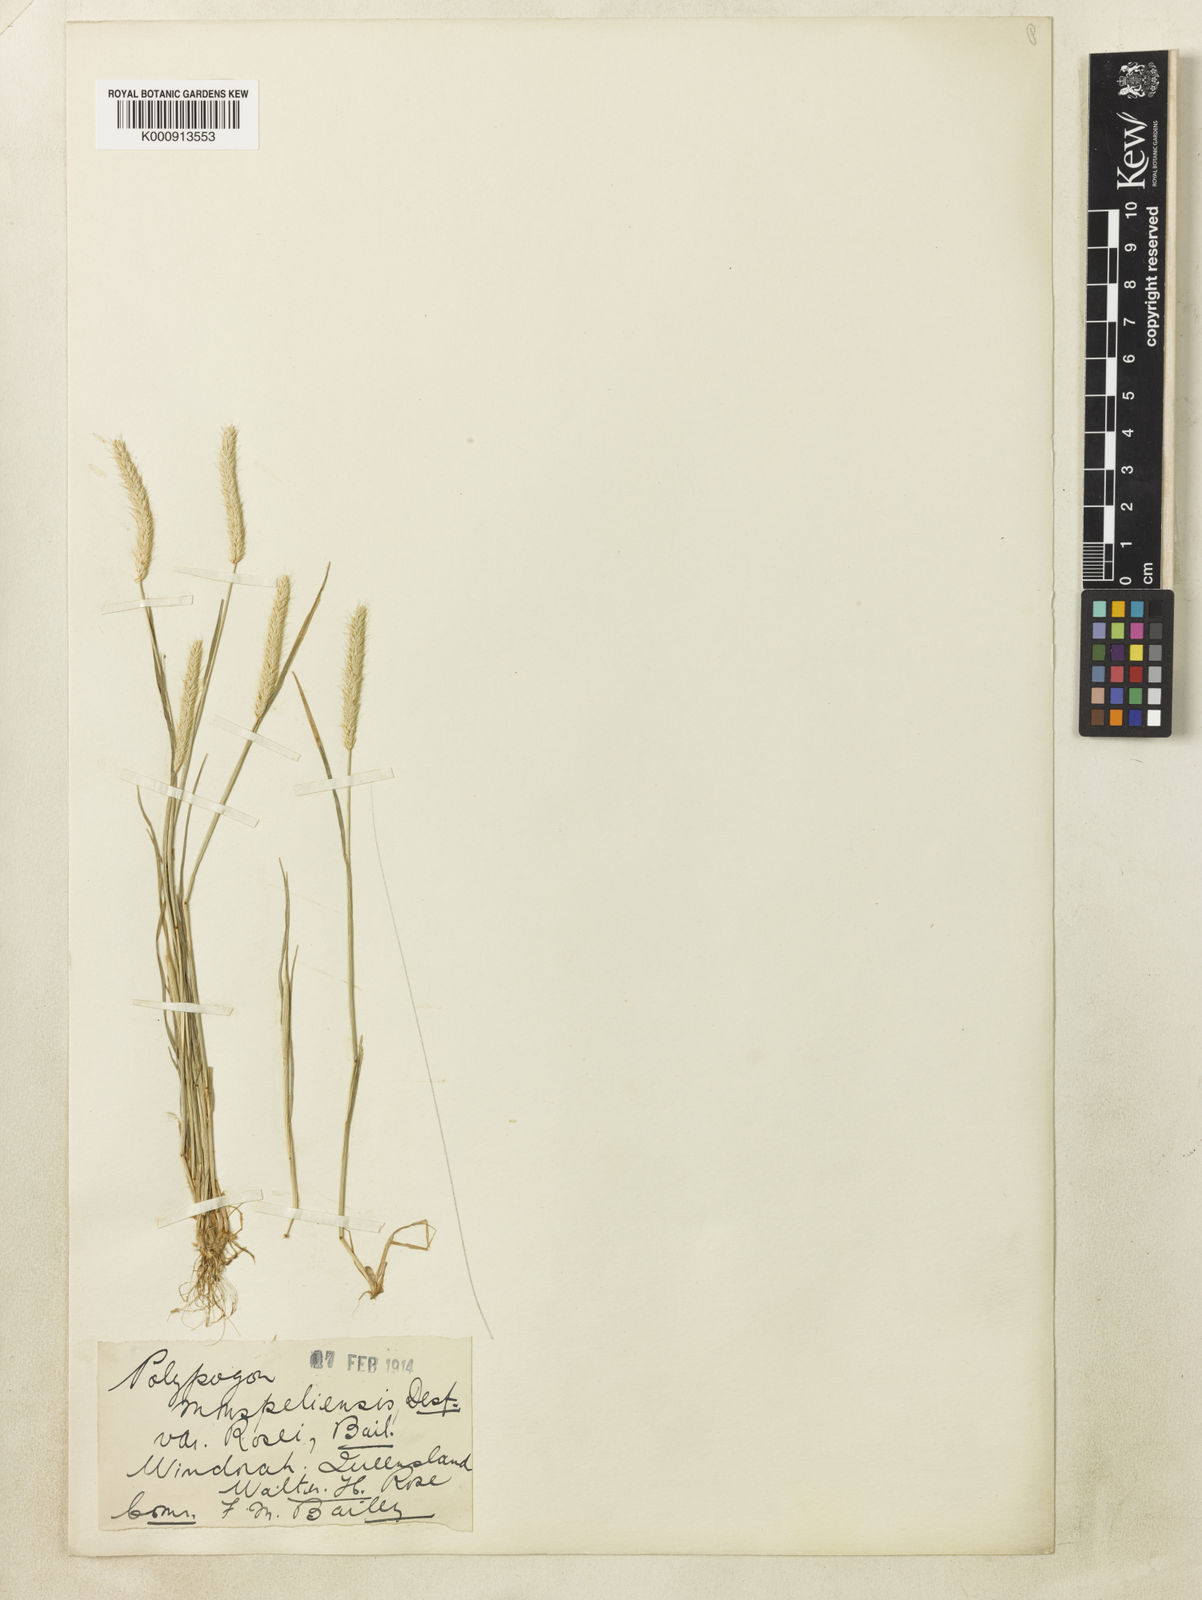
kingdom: Plantae
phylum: Tracheophyta
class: Liliopsida
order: Poales
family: Poaceae
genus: Alopecurus
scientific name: Alopecurus geniculatus
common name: Water foxtail
